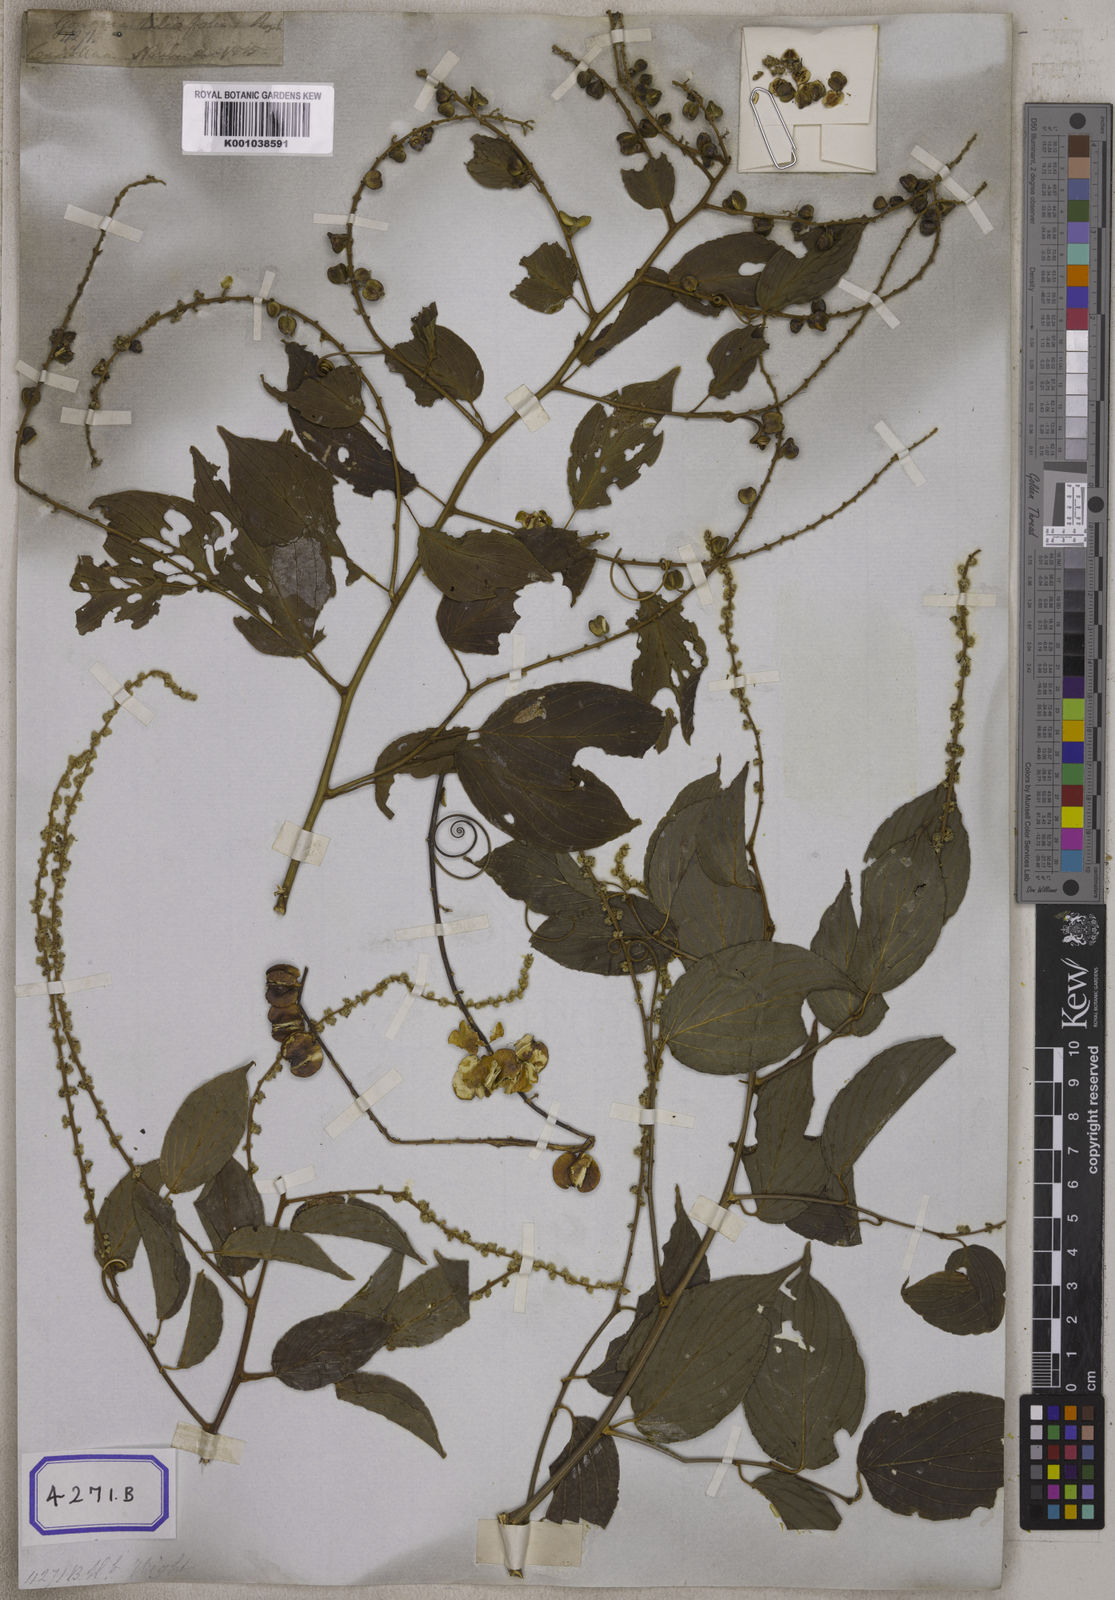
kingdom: Plantae
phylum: Tracheophyta
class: Magnoliopsida
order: Rosales
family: Rhamnaceae
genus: Gouania
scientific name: Gouania microcarpa
